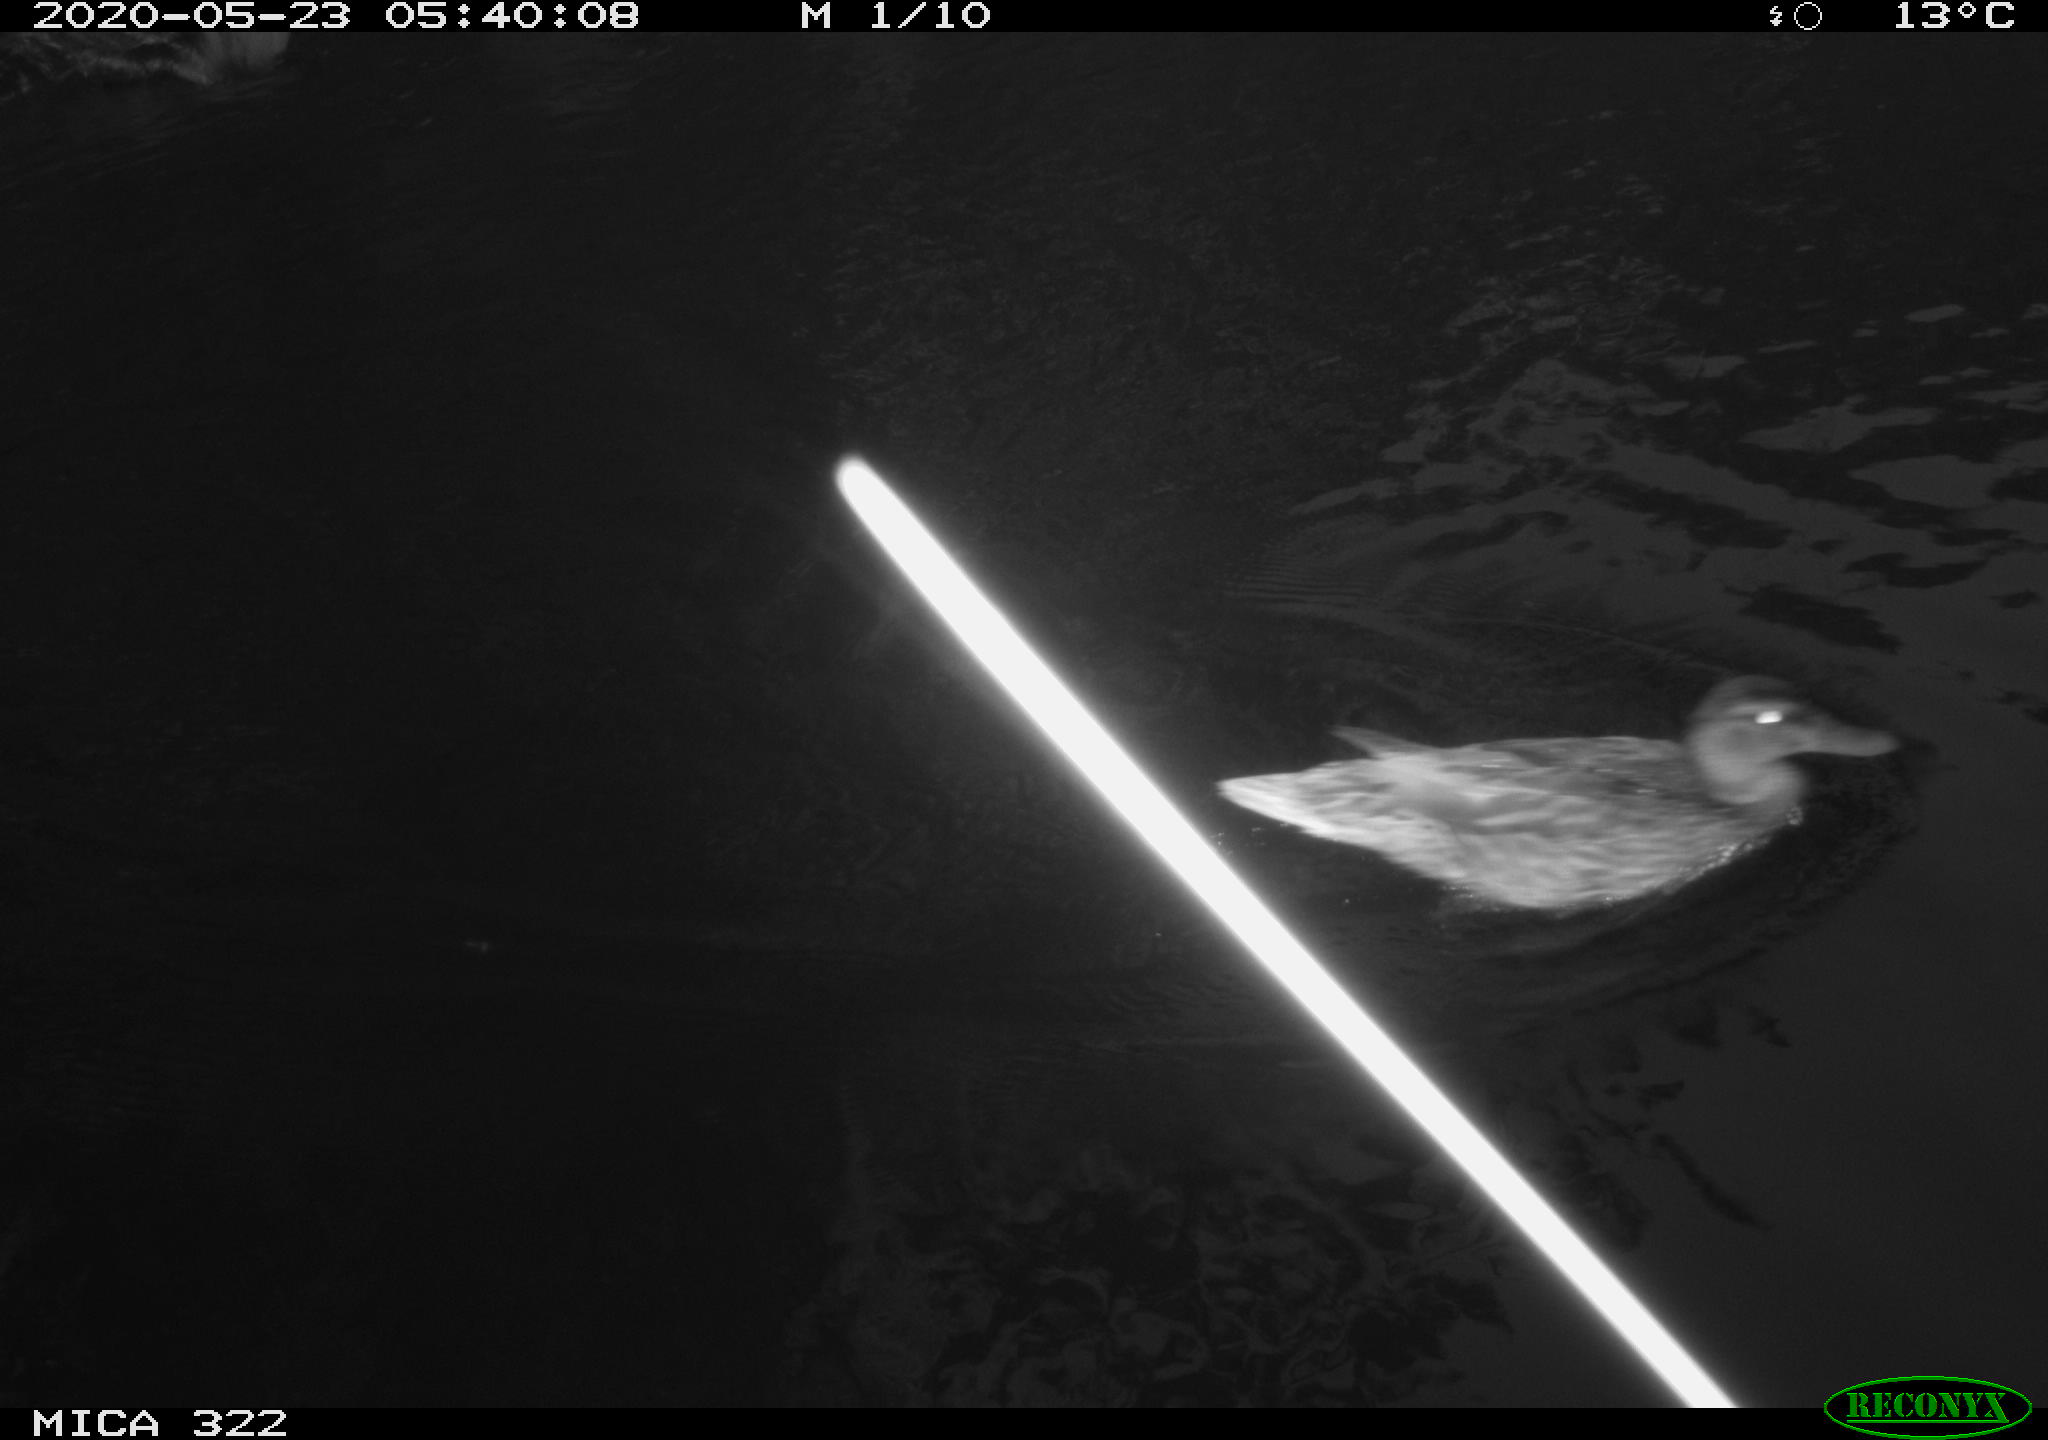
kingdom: Animalia
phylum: Chordata
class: Aves
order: Anseriformes
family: Anatidae
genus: Anas
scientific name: Anas platyrhynchos
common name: Mallard
